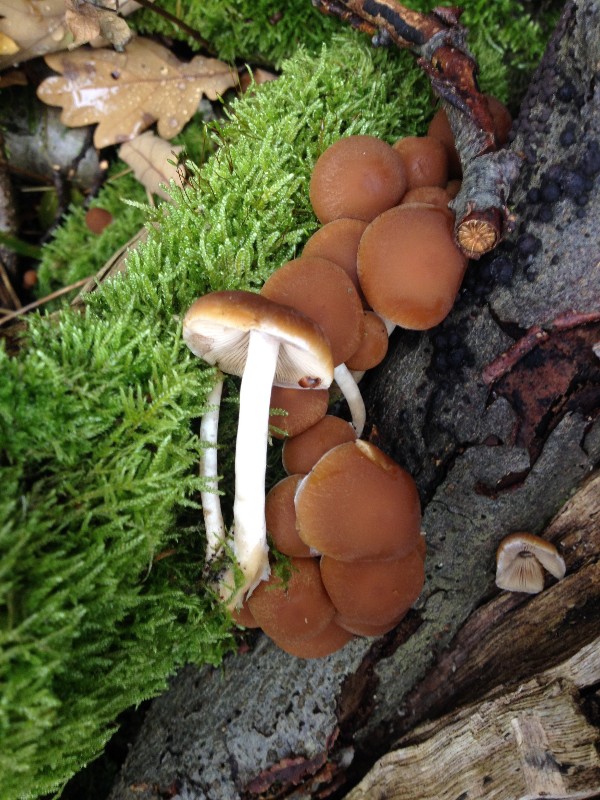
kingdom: Fungi
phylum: Basidiomycota
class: Agaricomycetes
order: Agaricales
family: Strophariaceae
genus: Kuehneromyces
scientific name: Kuehneromyces mutabilis
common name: foranderlig skælhat
